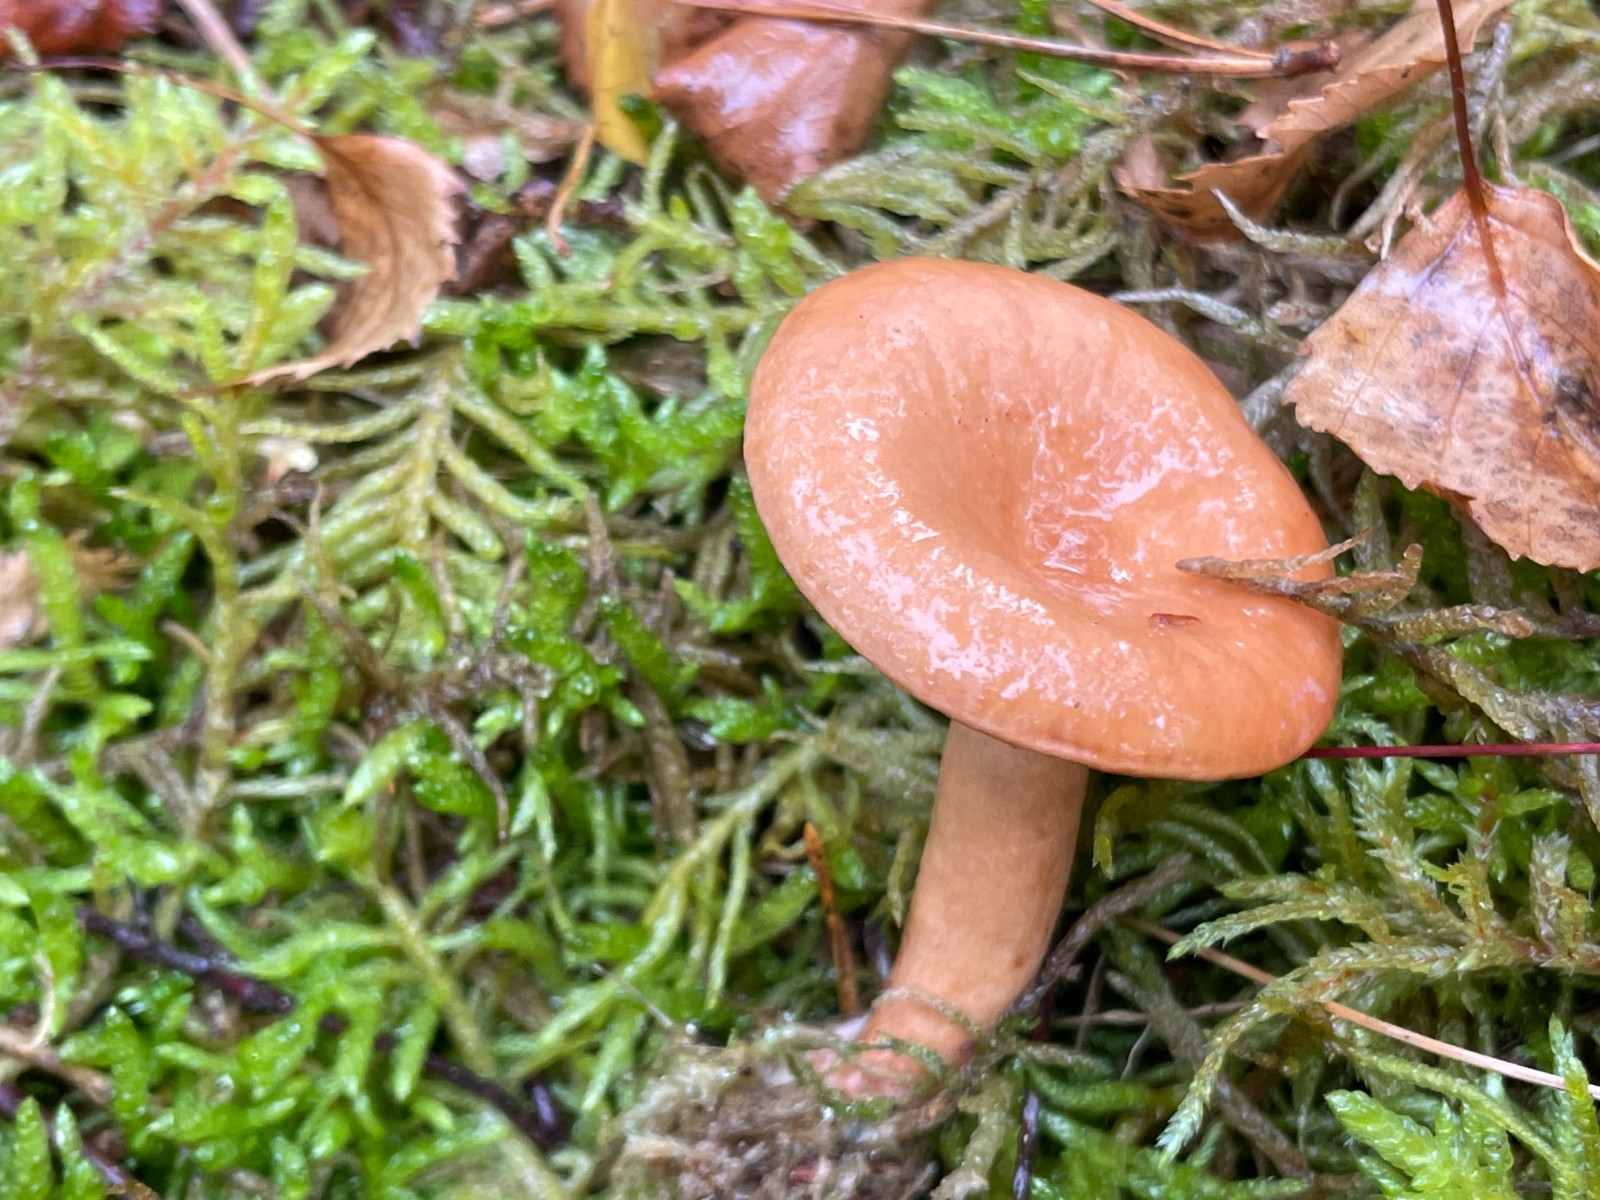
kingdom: Fungi
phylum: Basidiomycota
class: Agaricomycetes
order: Russulales
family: Russulaceae
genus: Lactarius
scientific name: Lactarius aurantiacus
